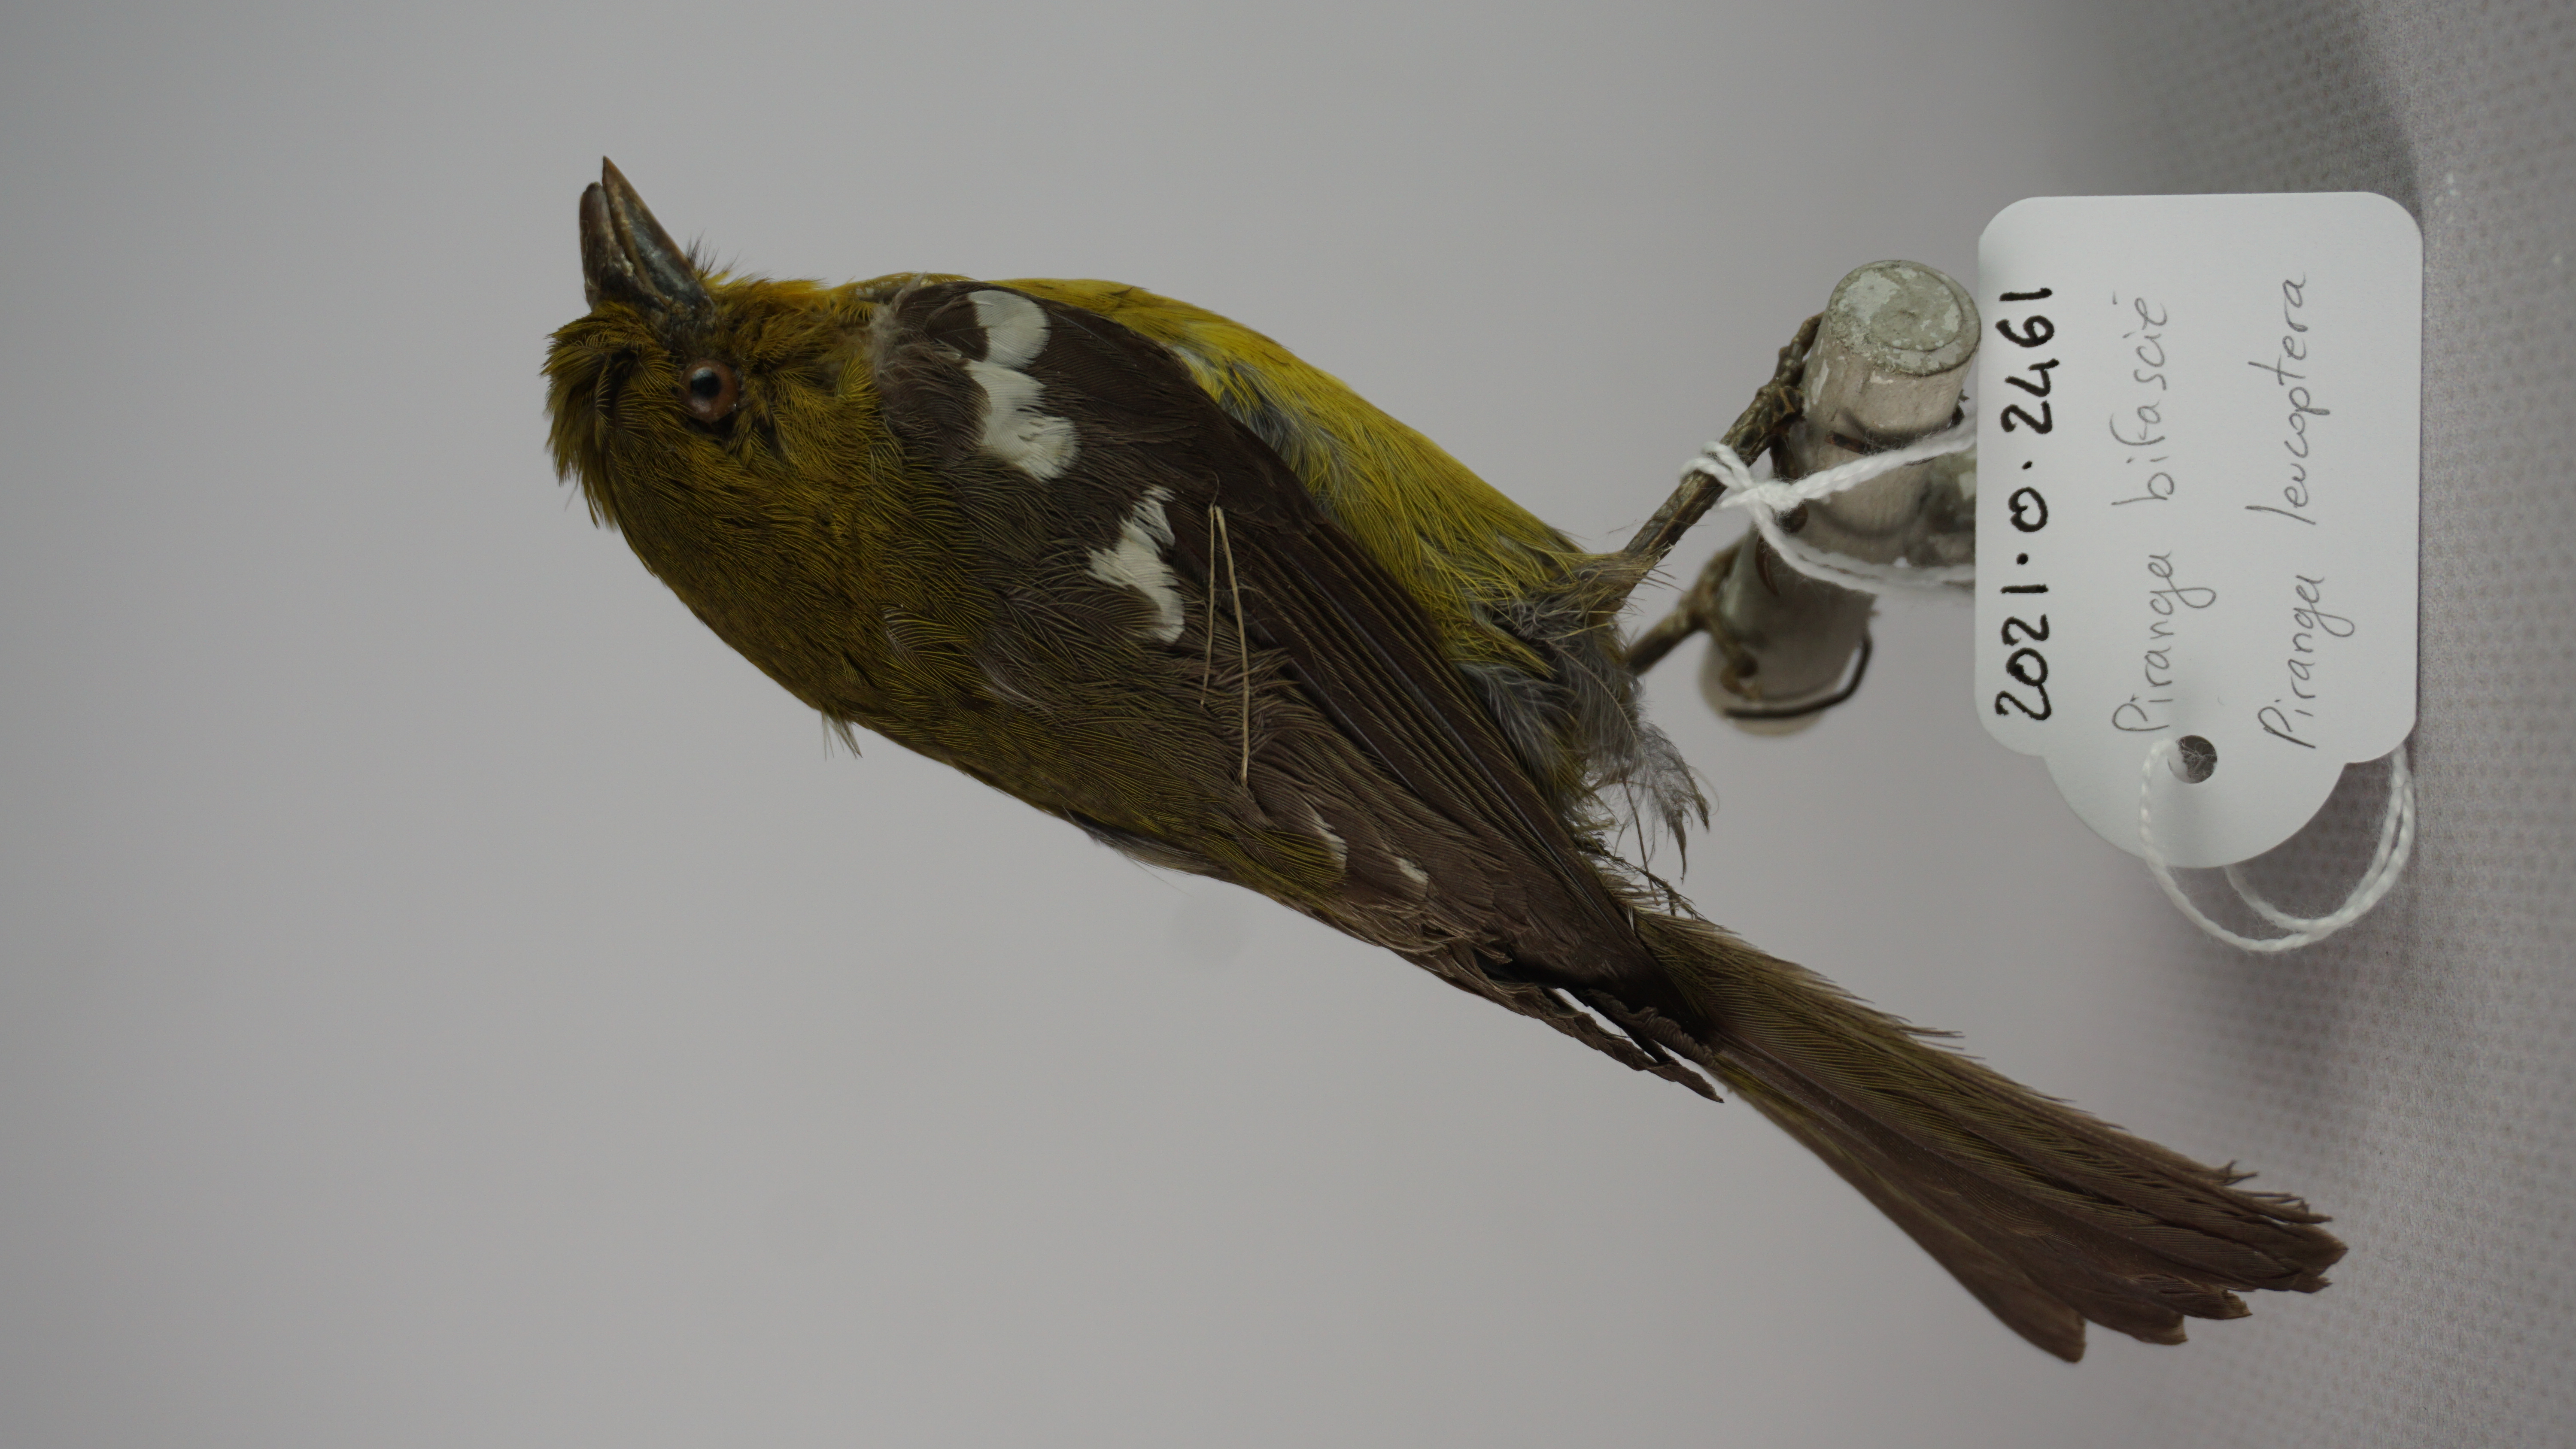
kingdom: Animalia
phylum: Chordata
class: Aves
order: Passeriformes
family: Cardinalidae
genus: Piranga
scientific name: Piranga leucoptera
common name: White-winged tanager
